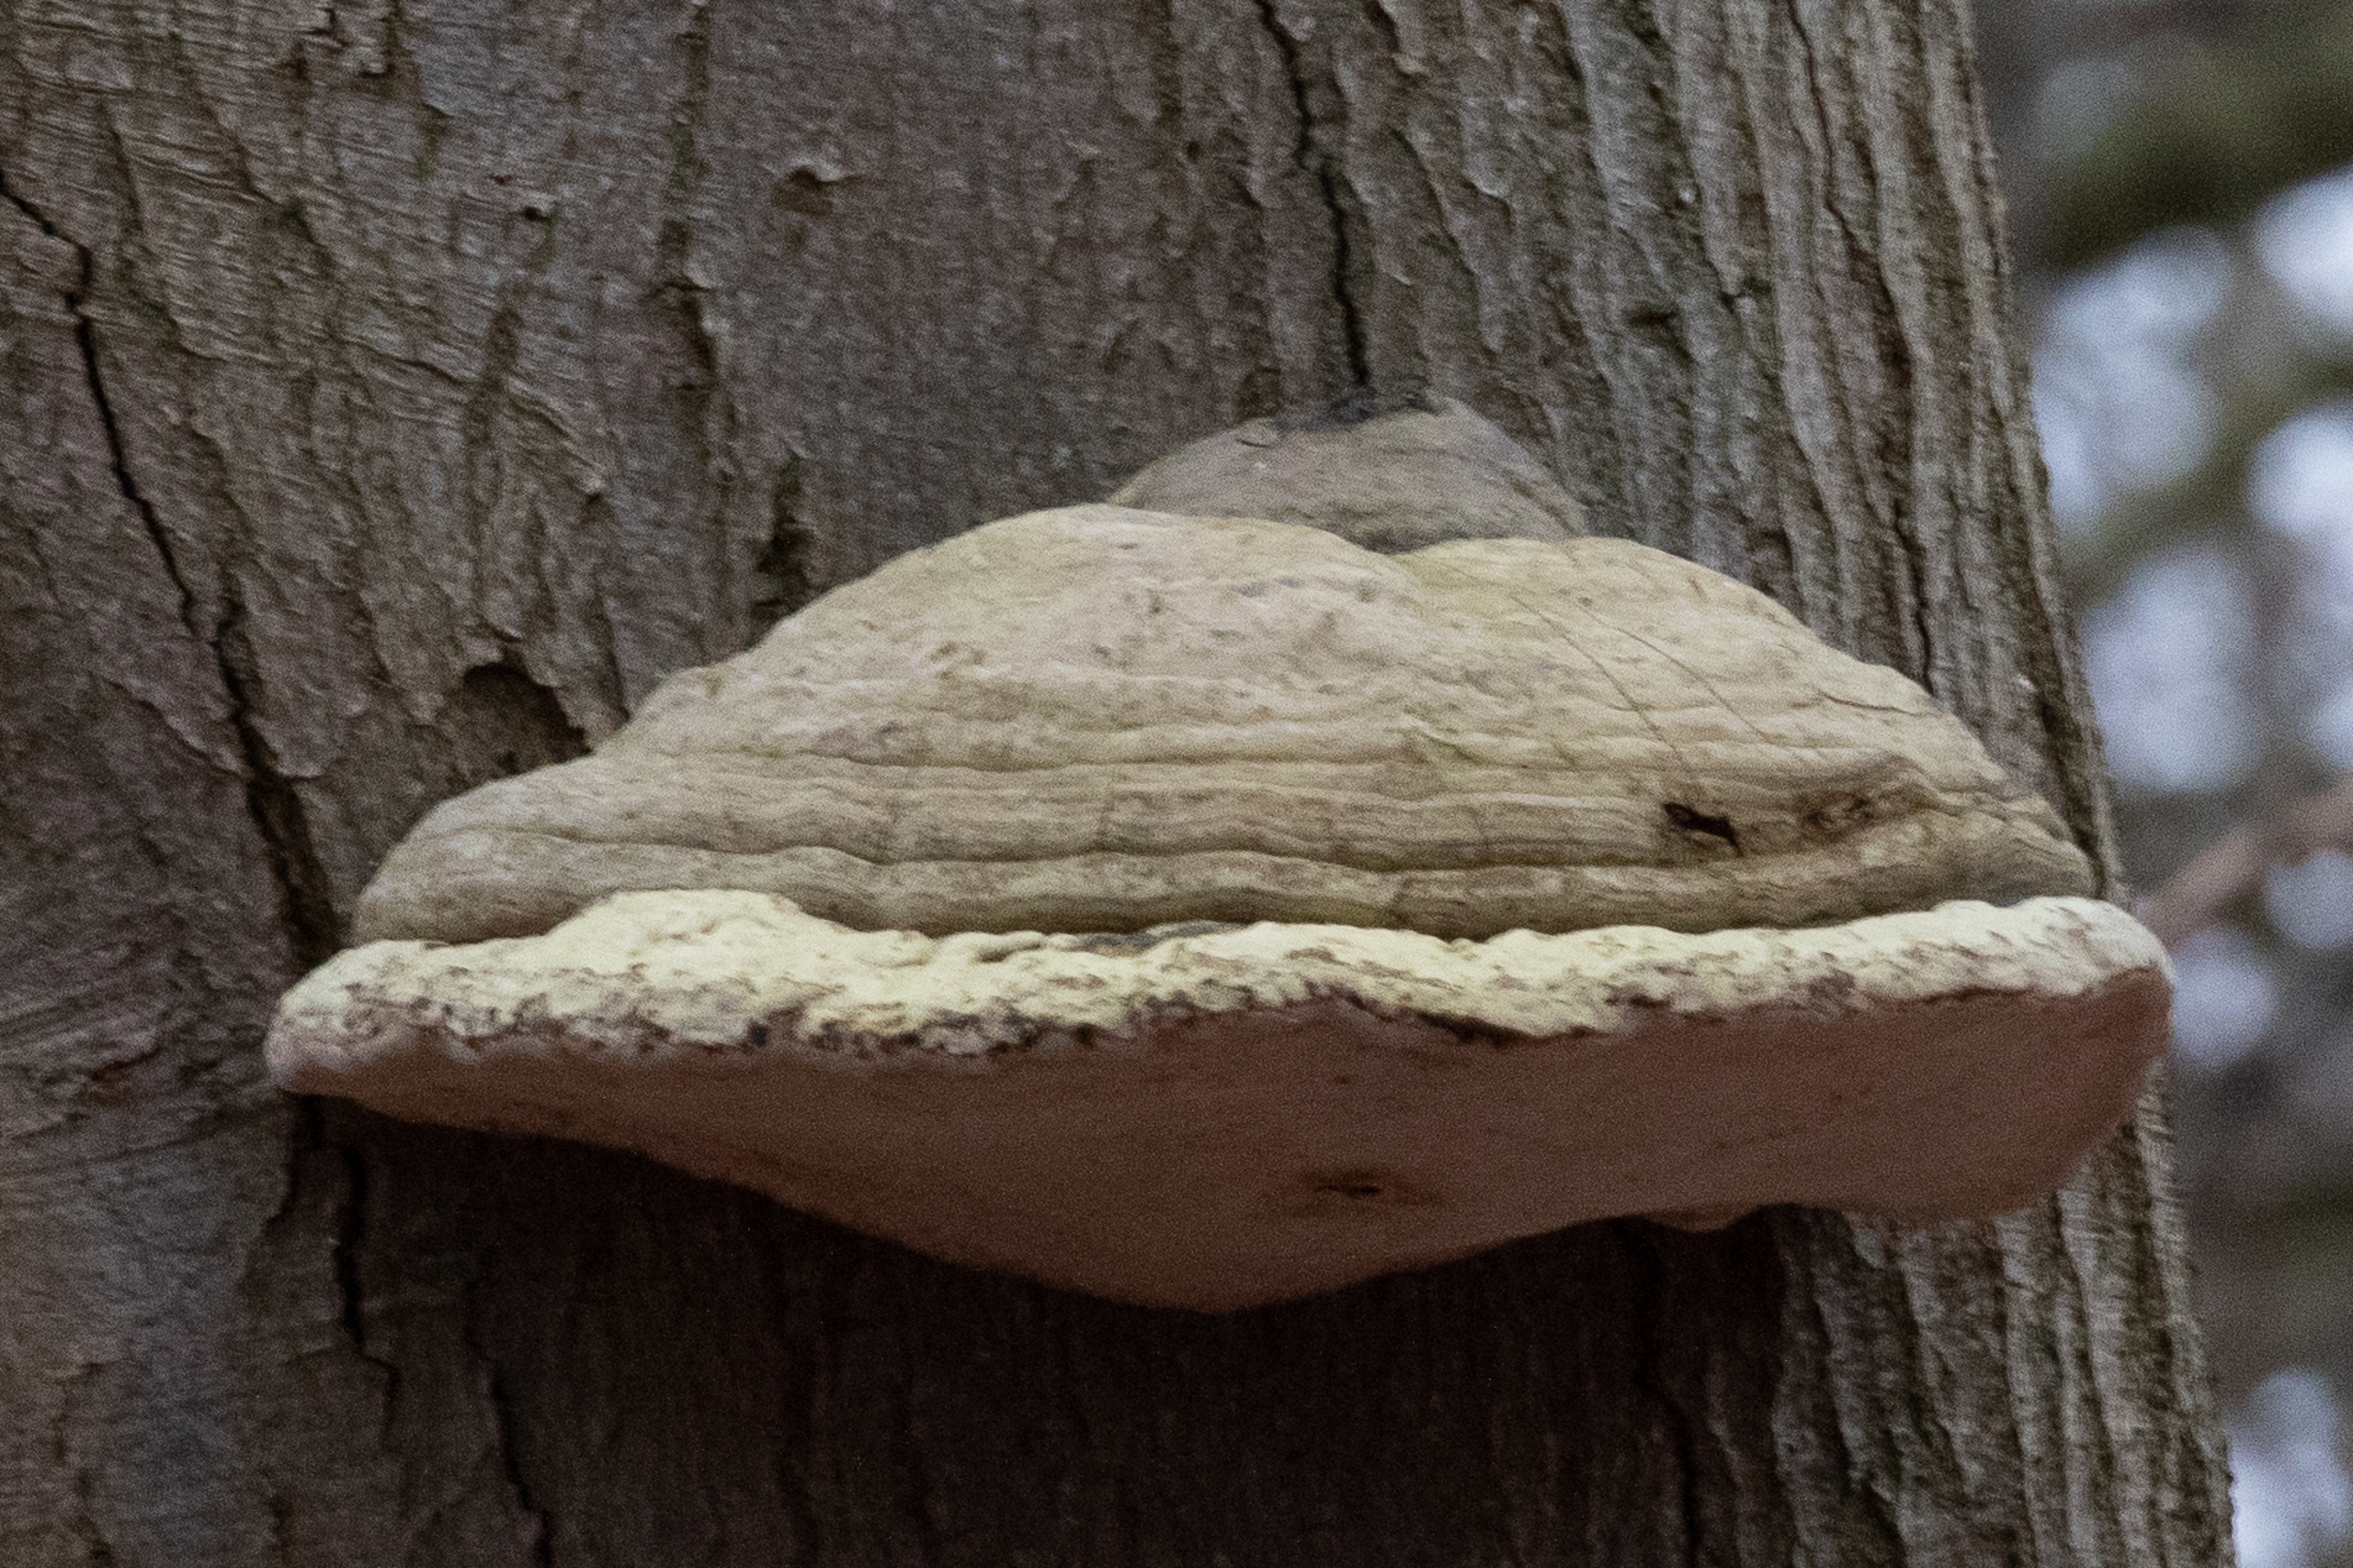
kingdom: Fungi
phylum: Basidiomycota
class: Agaricomycetes
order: Polyporales
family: Polyporaceae
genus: Fomes
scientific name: Fomes fomentarius
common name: Tøndersvamp
